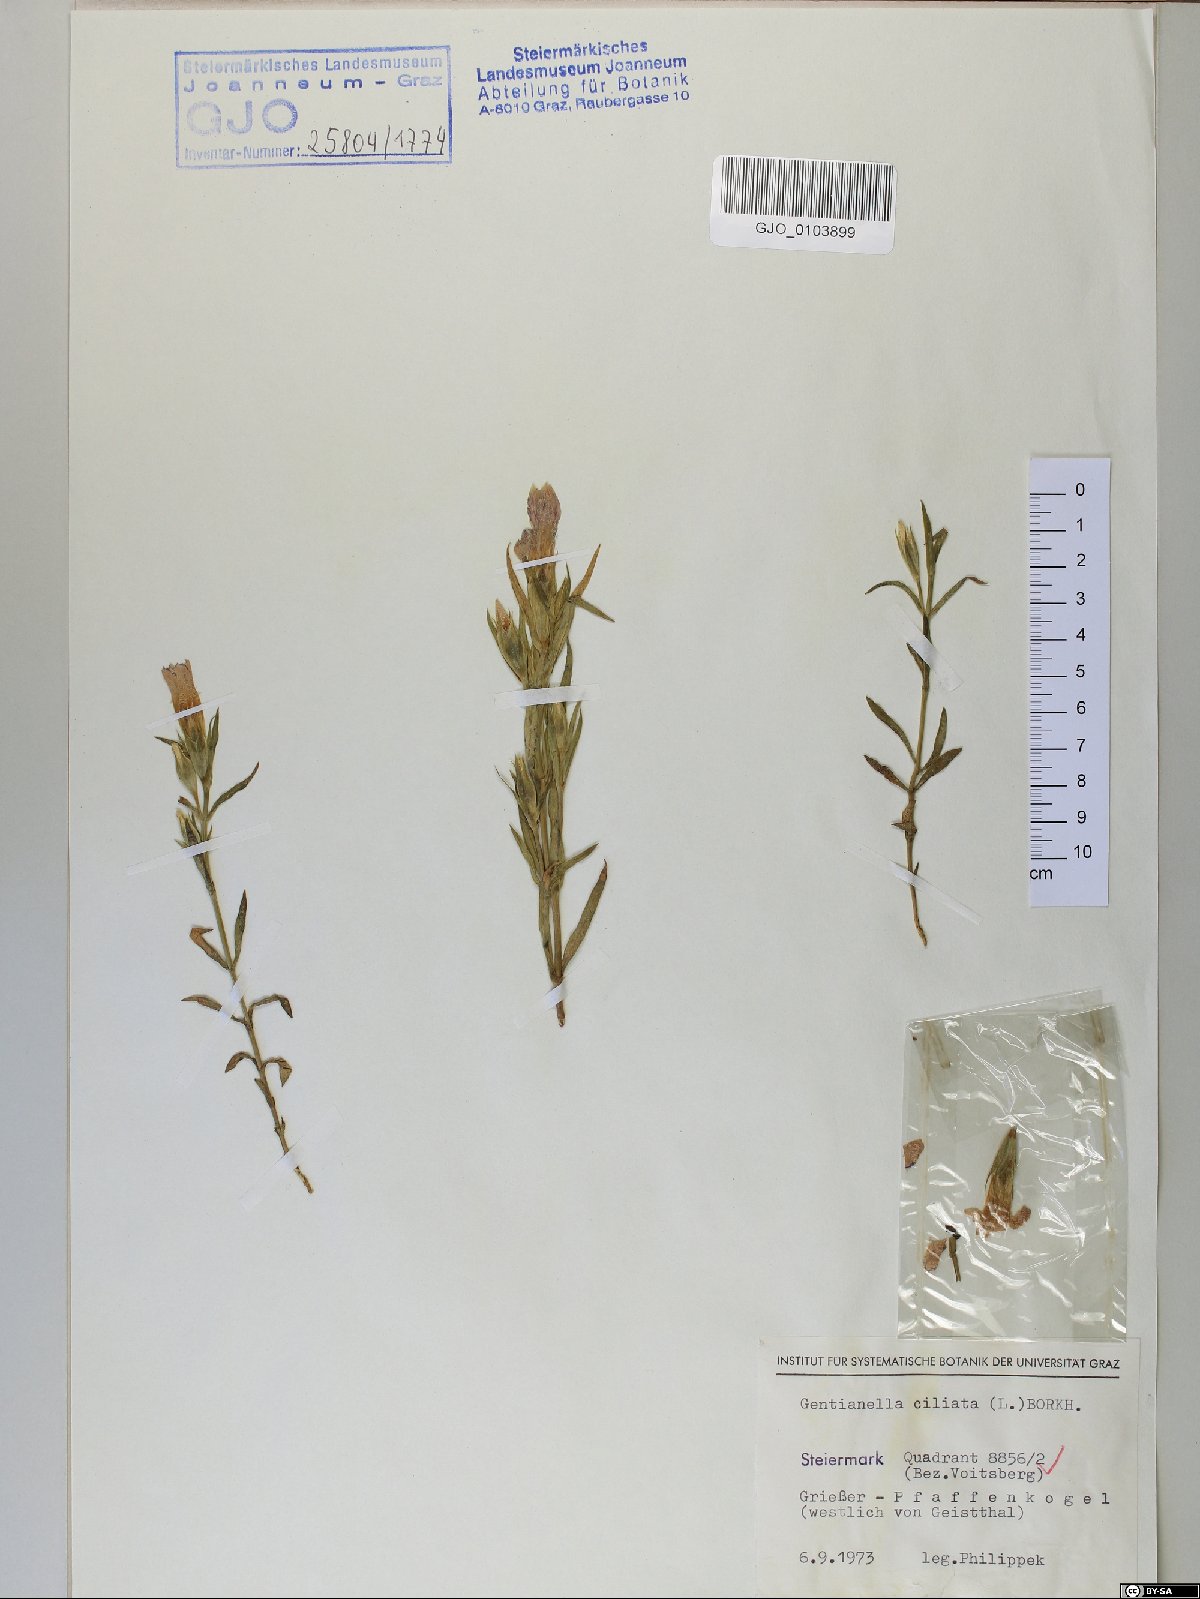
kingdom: Plantae
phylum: Tracheophyta
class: Magnoliopsida
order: Gentianales
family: Gentianaceae
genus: Gentianopsis
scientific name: Gentianopsis ciliata
